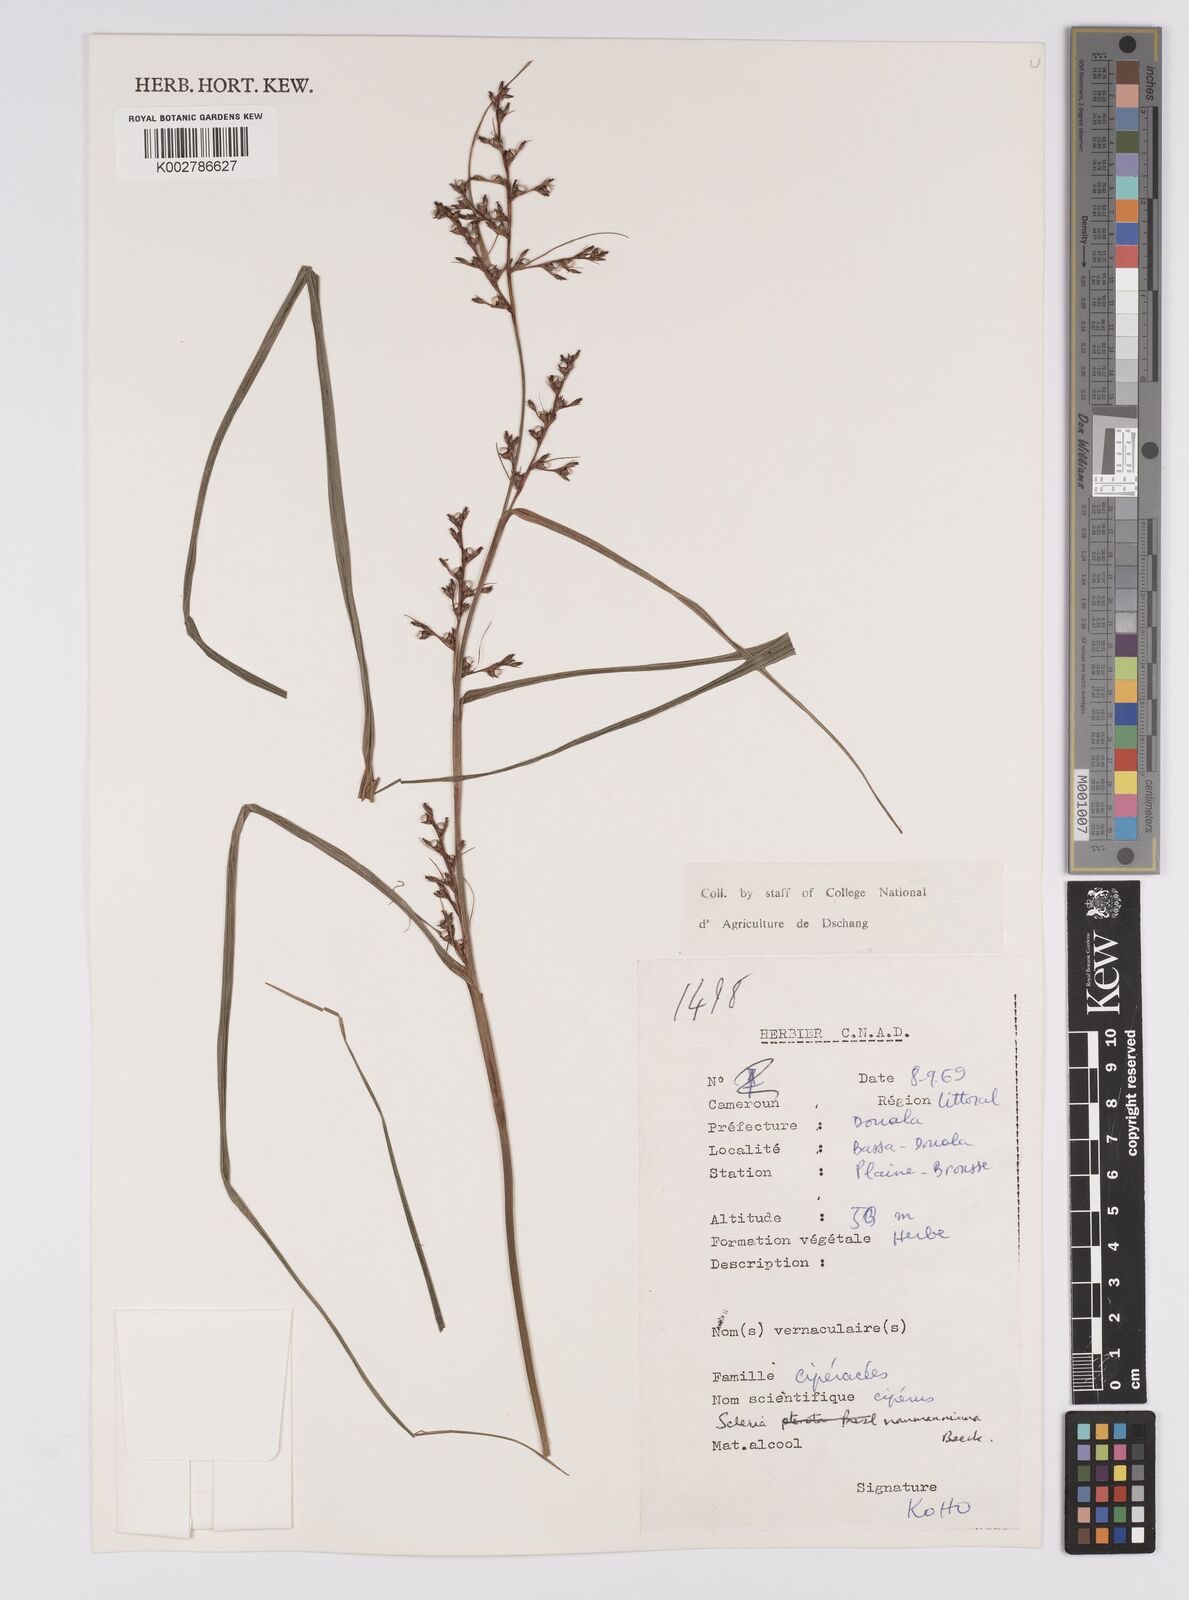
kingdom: Plantae
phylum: Tracheophyta
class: Liliopsida
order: Poales
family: Cyperaceae
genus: Scleria
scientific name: Scleria naumanniana
